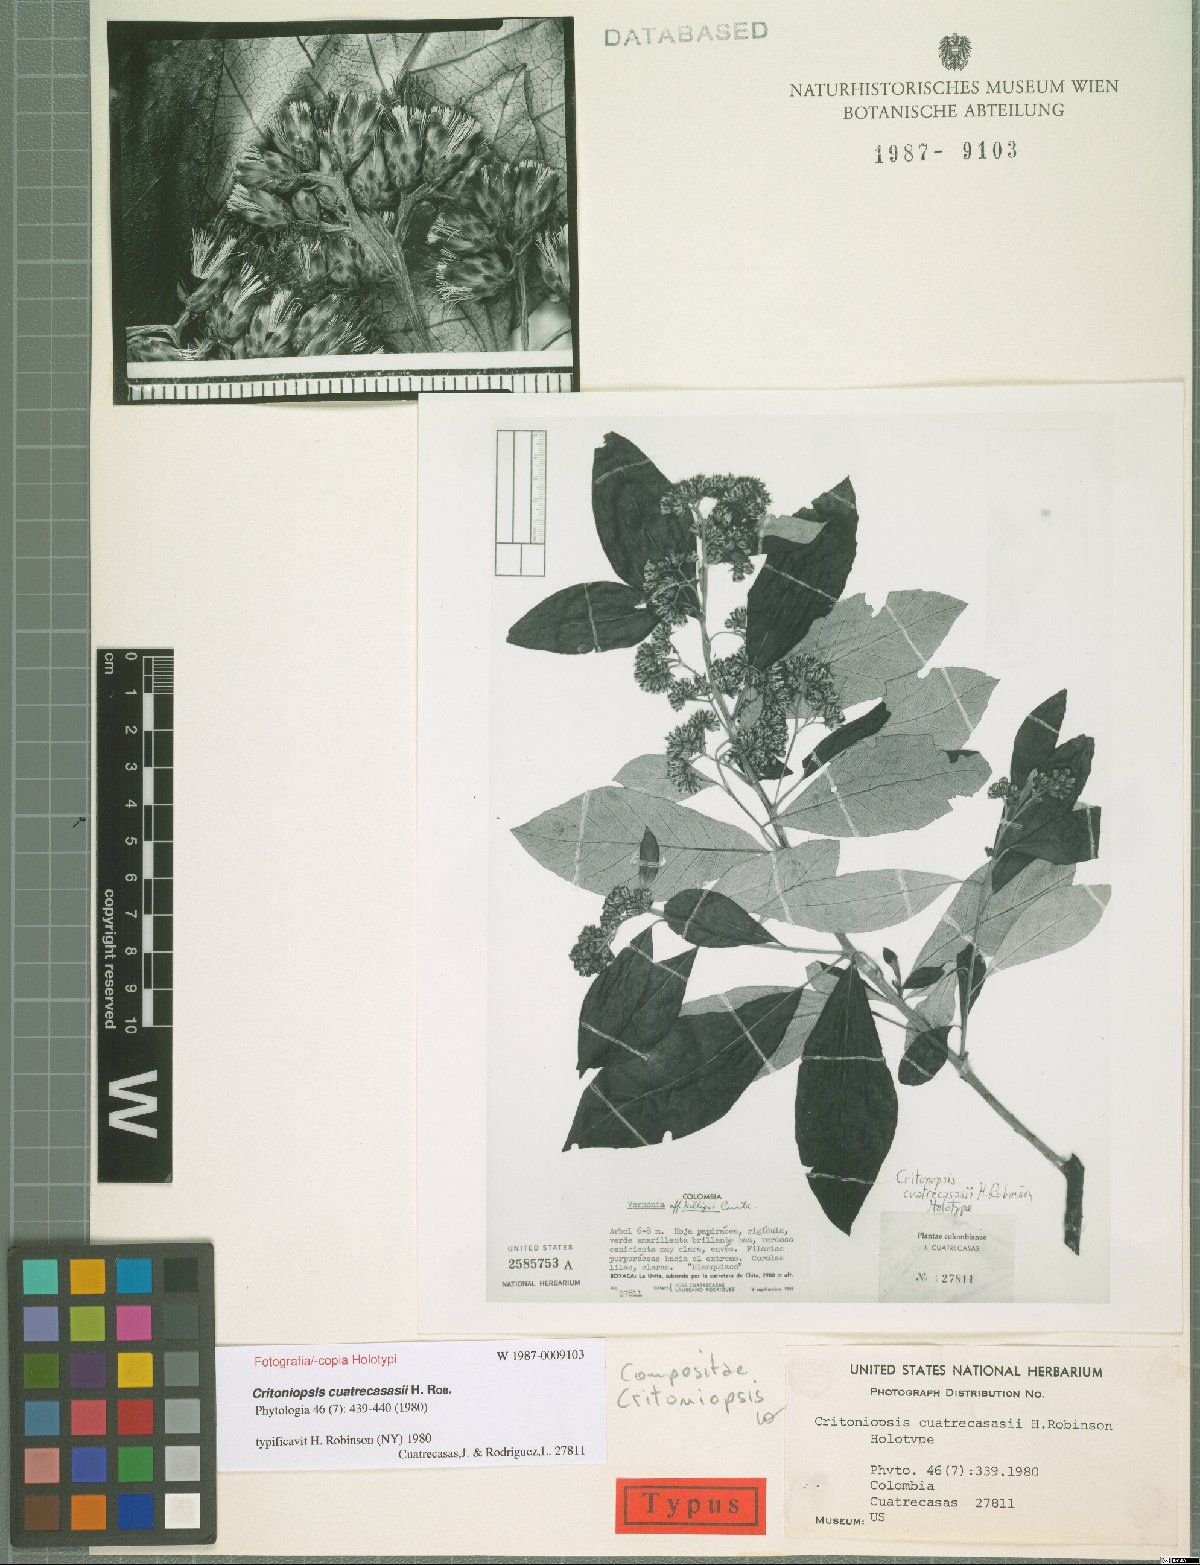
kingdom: Plantae
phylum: Tracheophyta
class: Magnoliopsida
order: Asterales
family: Asteraceae
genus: Critoniopsis
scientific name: Critoniopsis cuatrecasasii
